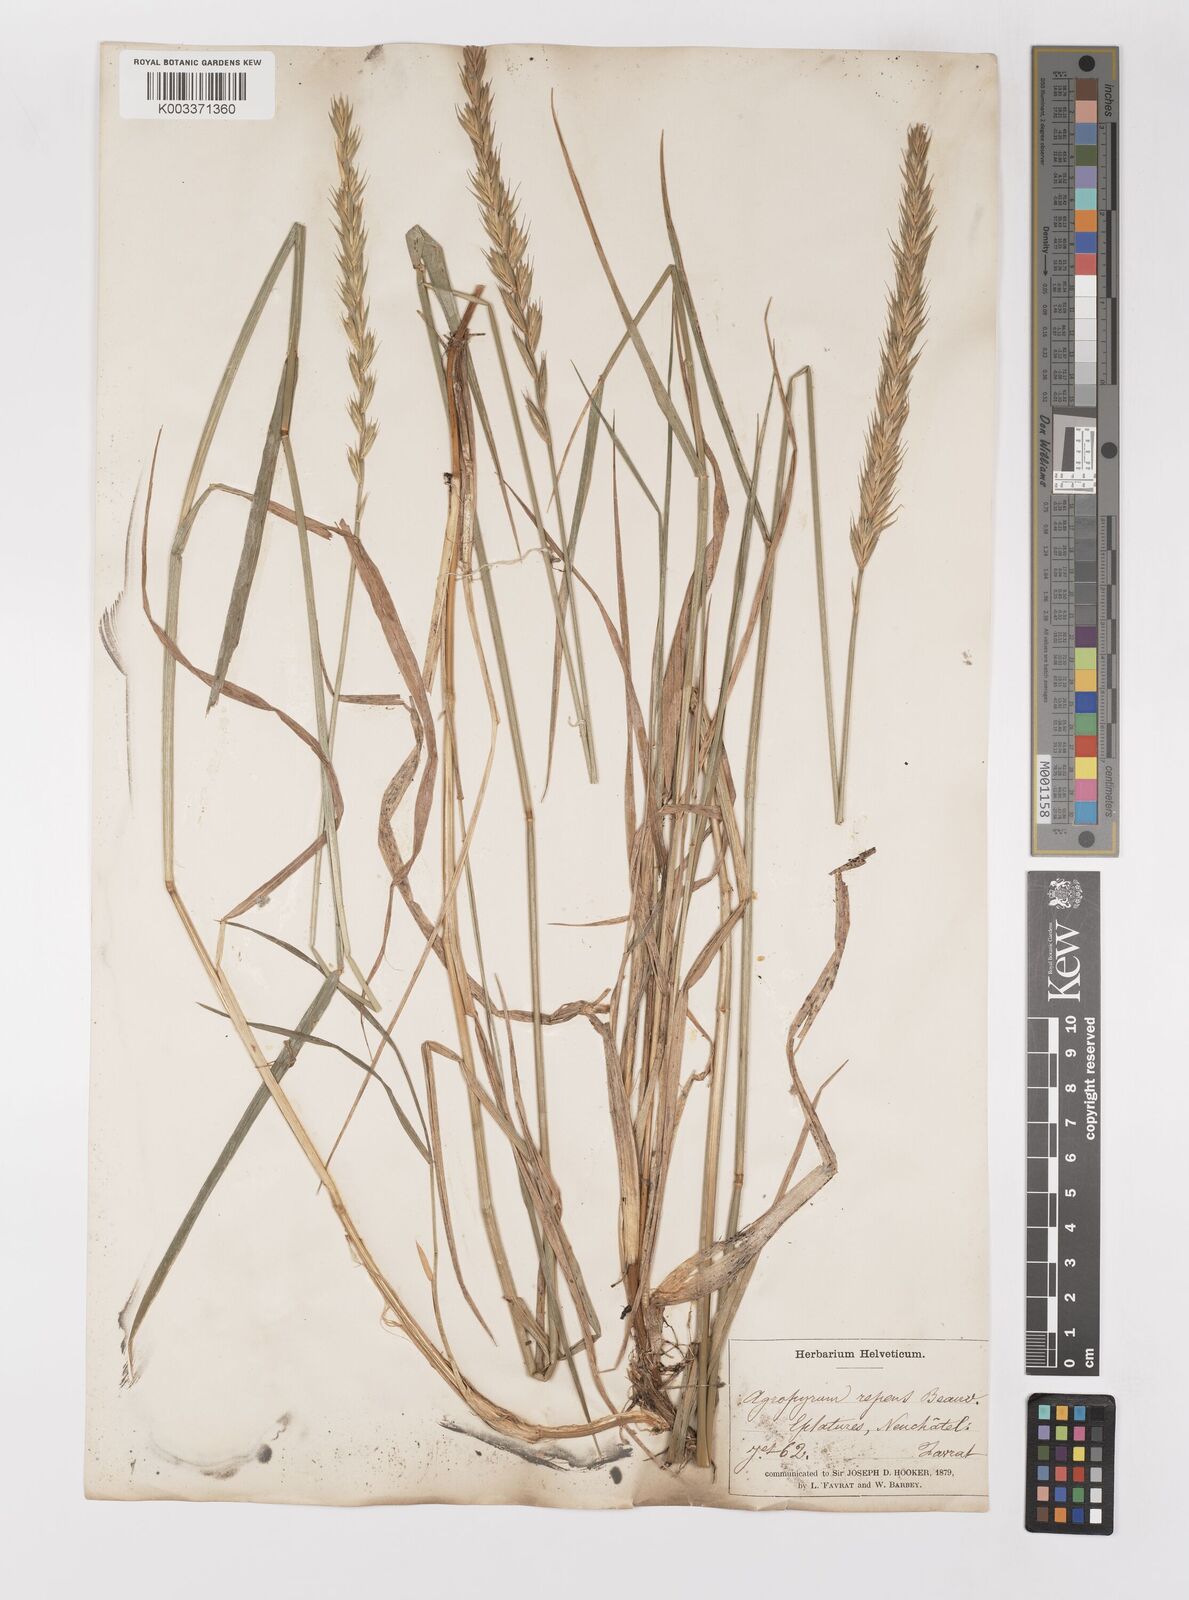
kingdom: Plantae
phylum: Tracheophyta
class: Liliopsida
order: Poales
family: Poaceae
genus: Elymus
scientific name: Elymus repens
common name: Quackgrass
